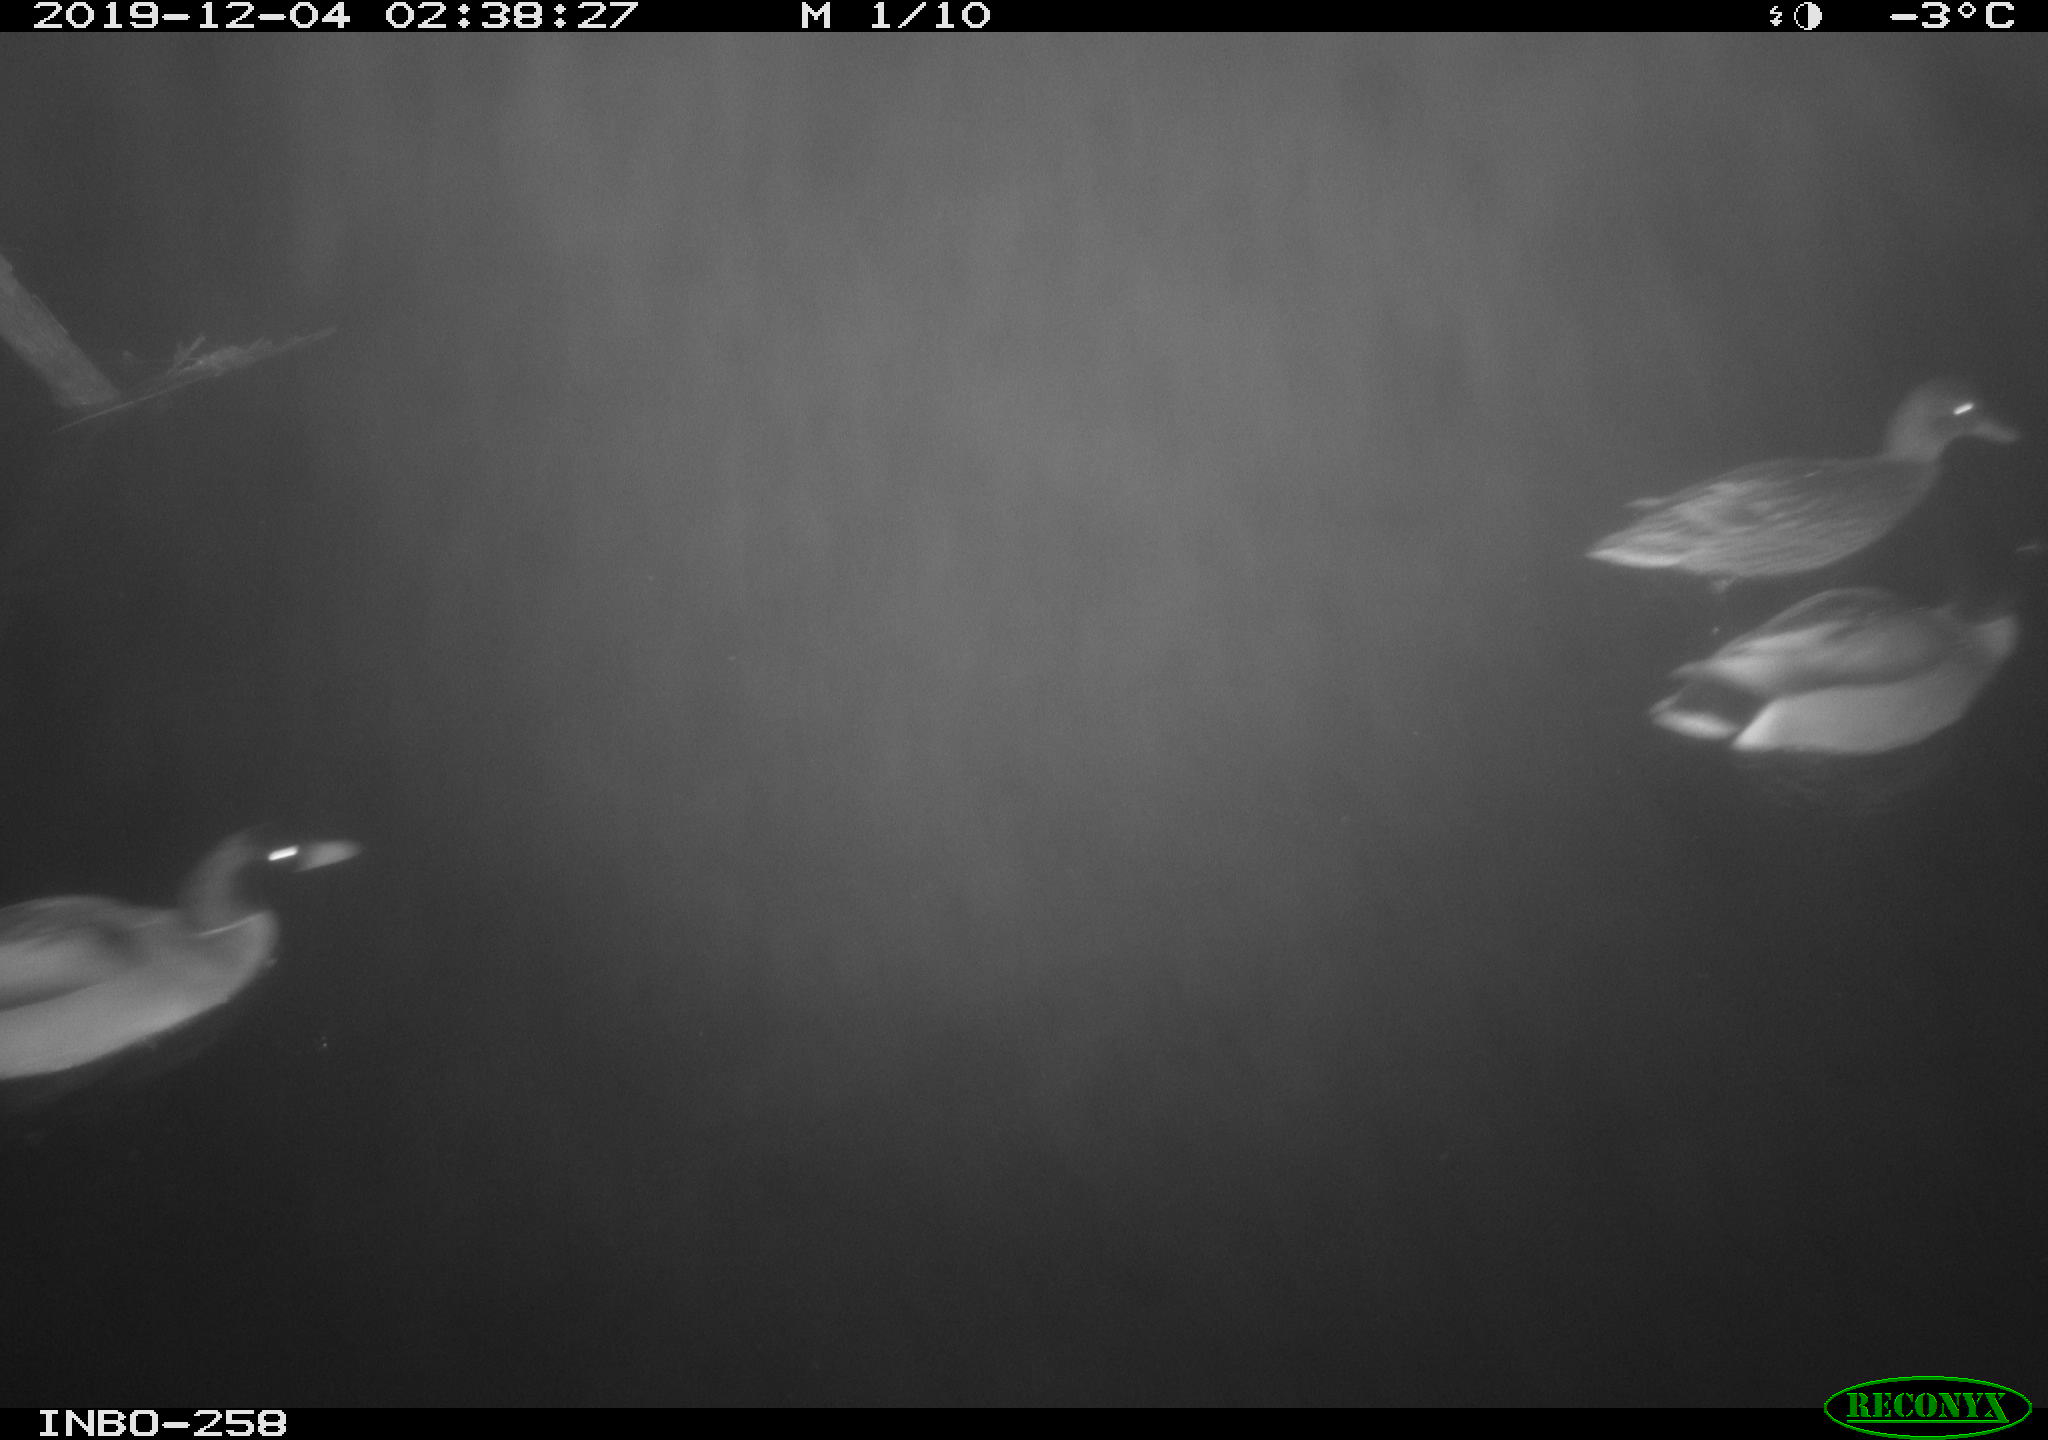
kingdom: Animalia
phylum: Chordata
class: Aves
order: Anseriformes
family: Anatidae
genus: Anas
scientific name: Anas platyrhynchos
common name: Mallard
